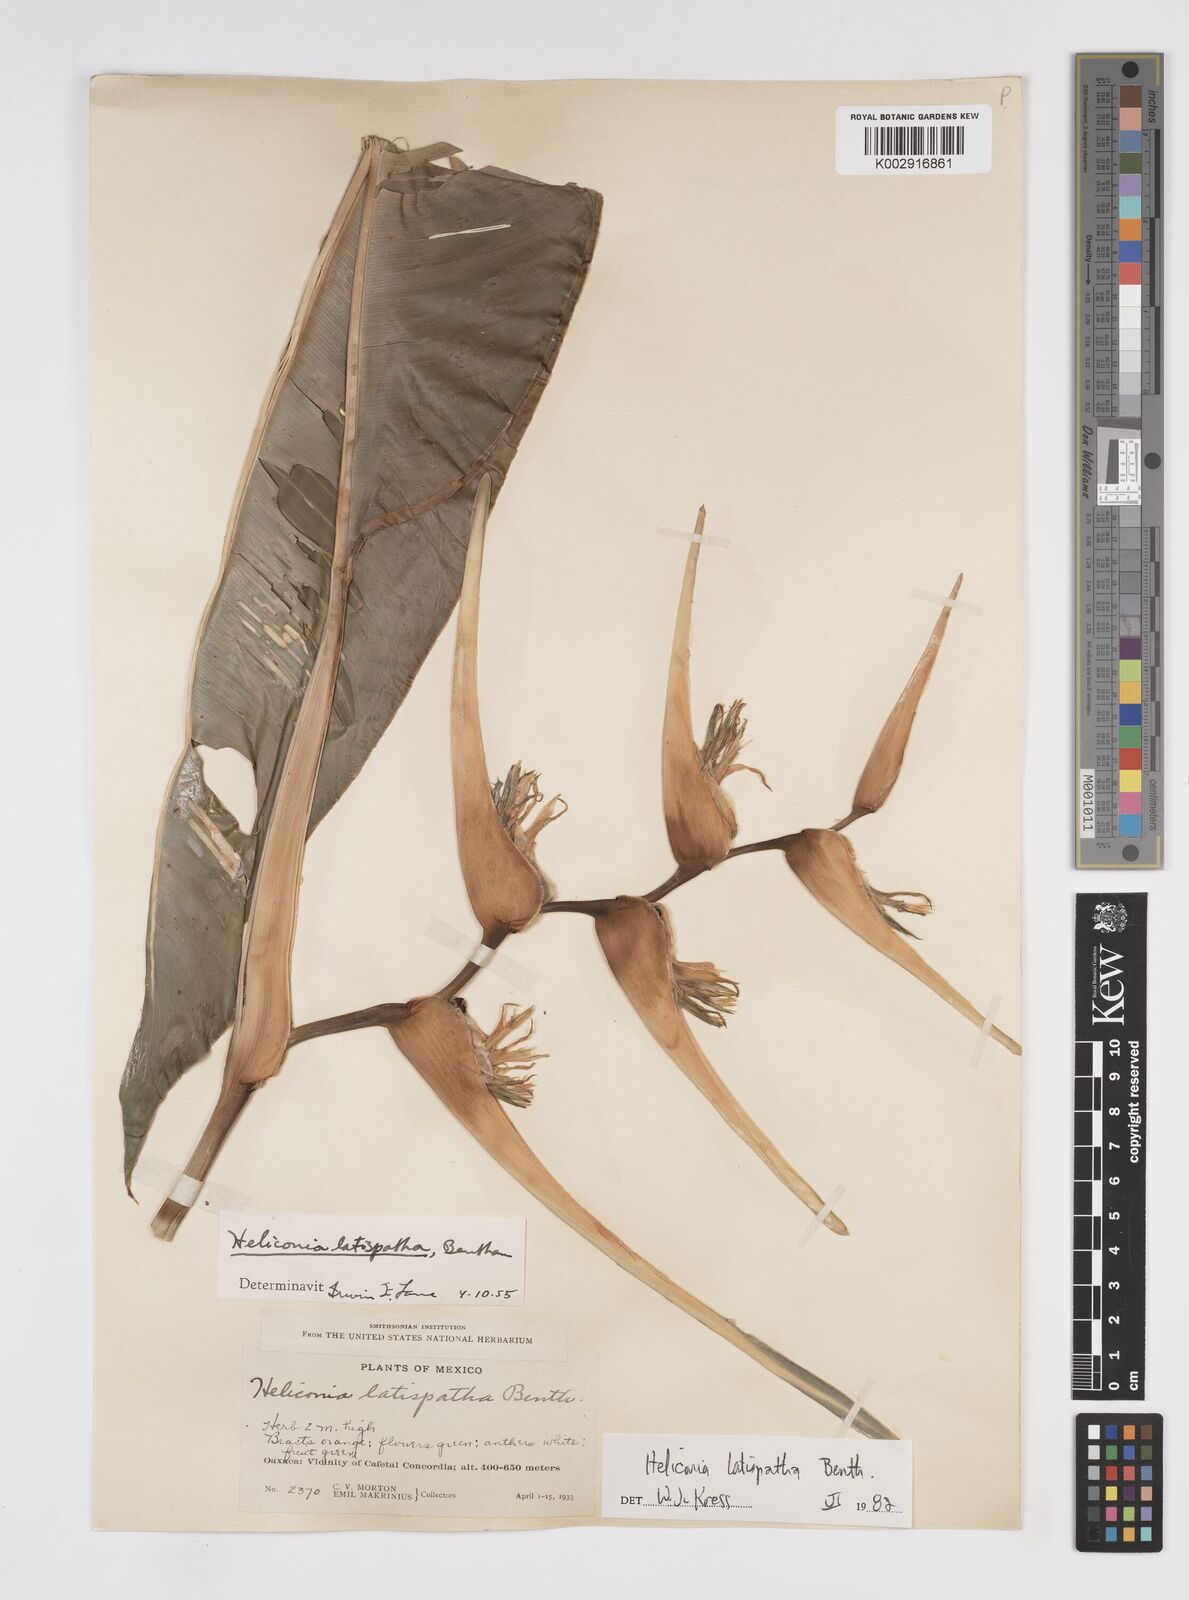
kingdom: Plantae
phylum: Tracheophyta
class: Liliopsida
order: Zingiberales
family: Heliconiaceae
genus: Heliconia
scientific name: Heliconia latispatha
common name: Expanded lobsterclaw
